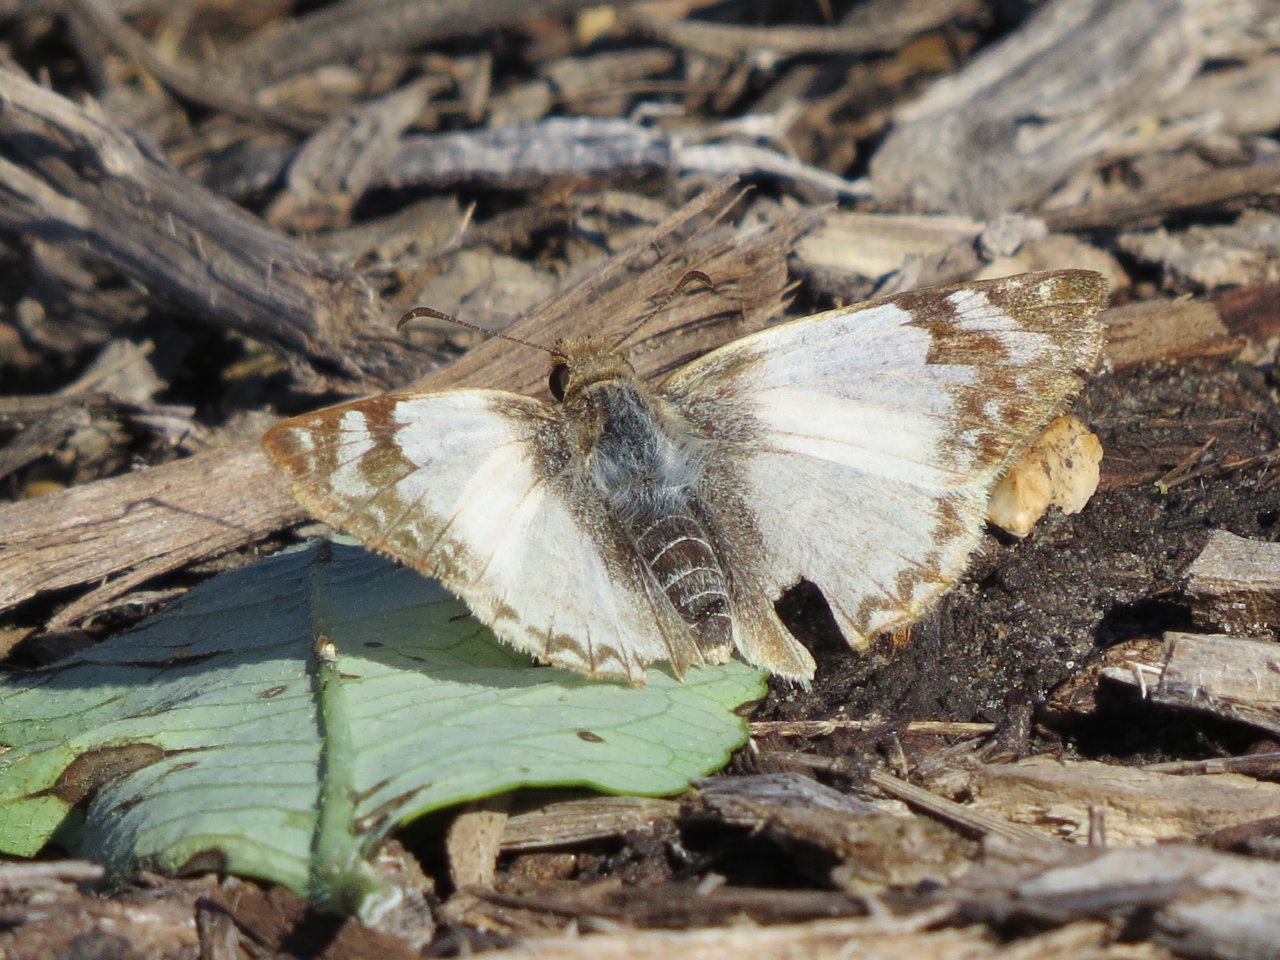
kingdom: Animalia
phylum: Arthropoda
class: Insecta
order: Lepidoptera
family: Hesperiidae
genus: Heliopetes
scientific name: Heliopetes laviana
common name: Laviana White-Skipper
